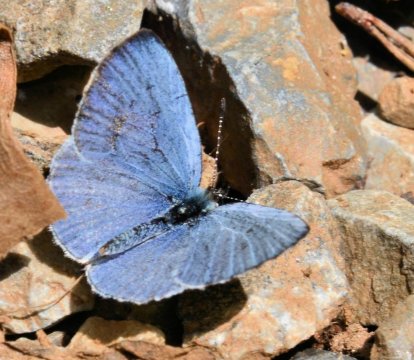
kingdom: Animalia
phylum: Arthropoda
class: Insecta
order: Lepidoptera
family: Lycaenidae
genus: Cyaniris
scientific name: Cyaniris neglecta
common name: Summer Azure
